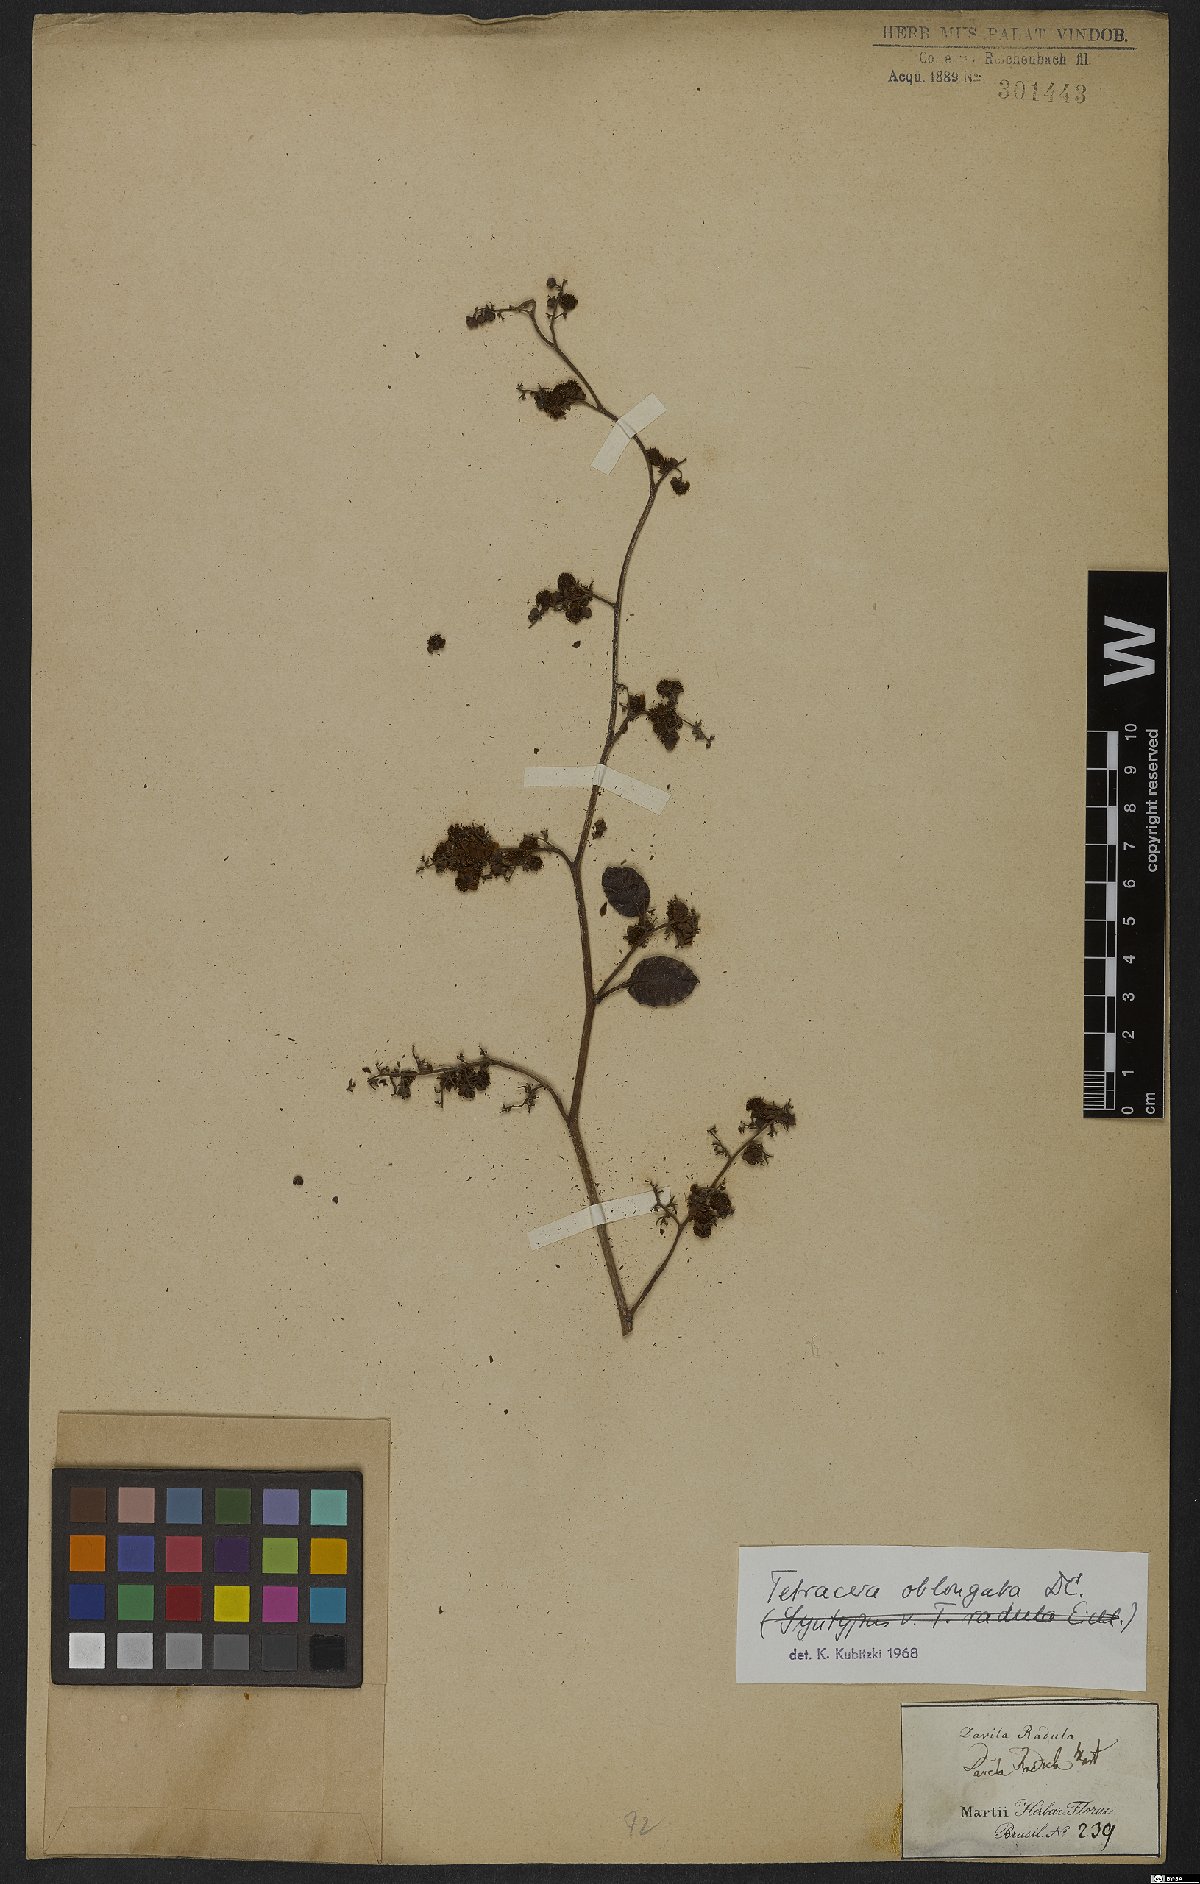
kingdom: Plantae
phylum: Tracheophyta
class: Magnoliopsida
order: Dilleniales
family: Dilleniaceae
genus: Tetracera
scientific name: Tetracera oblongata
